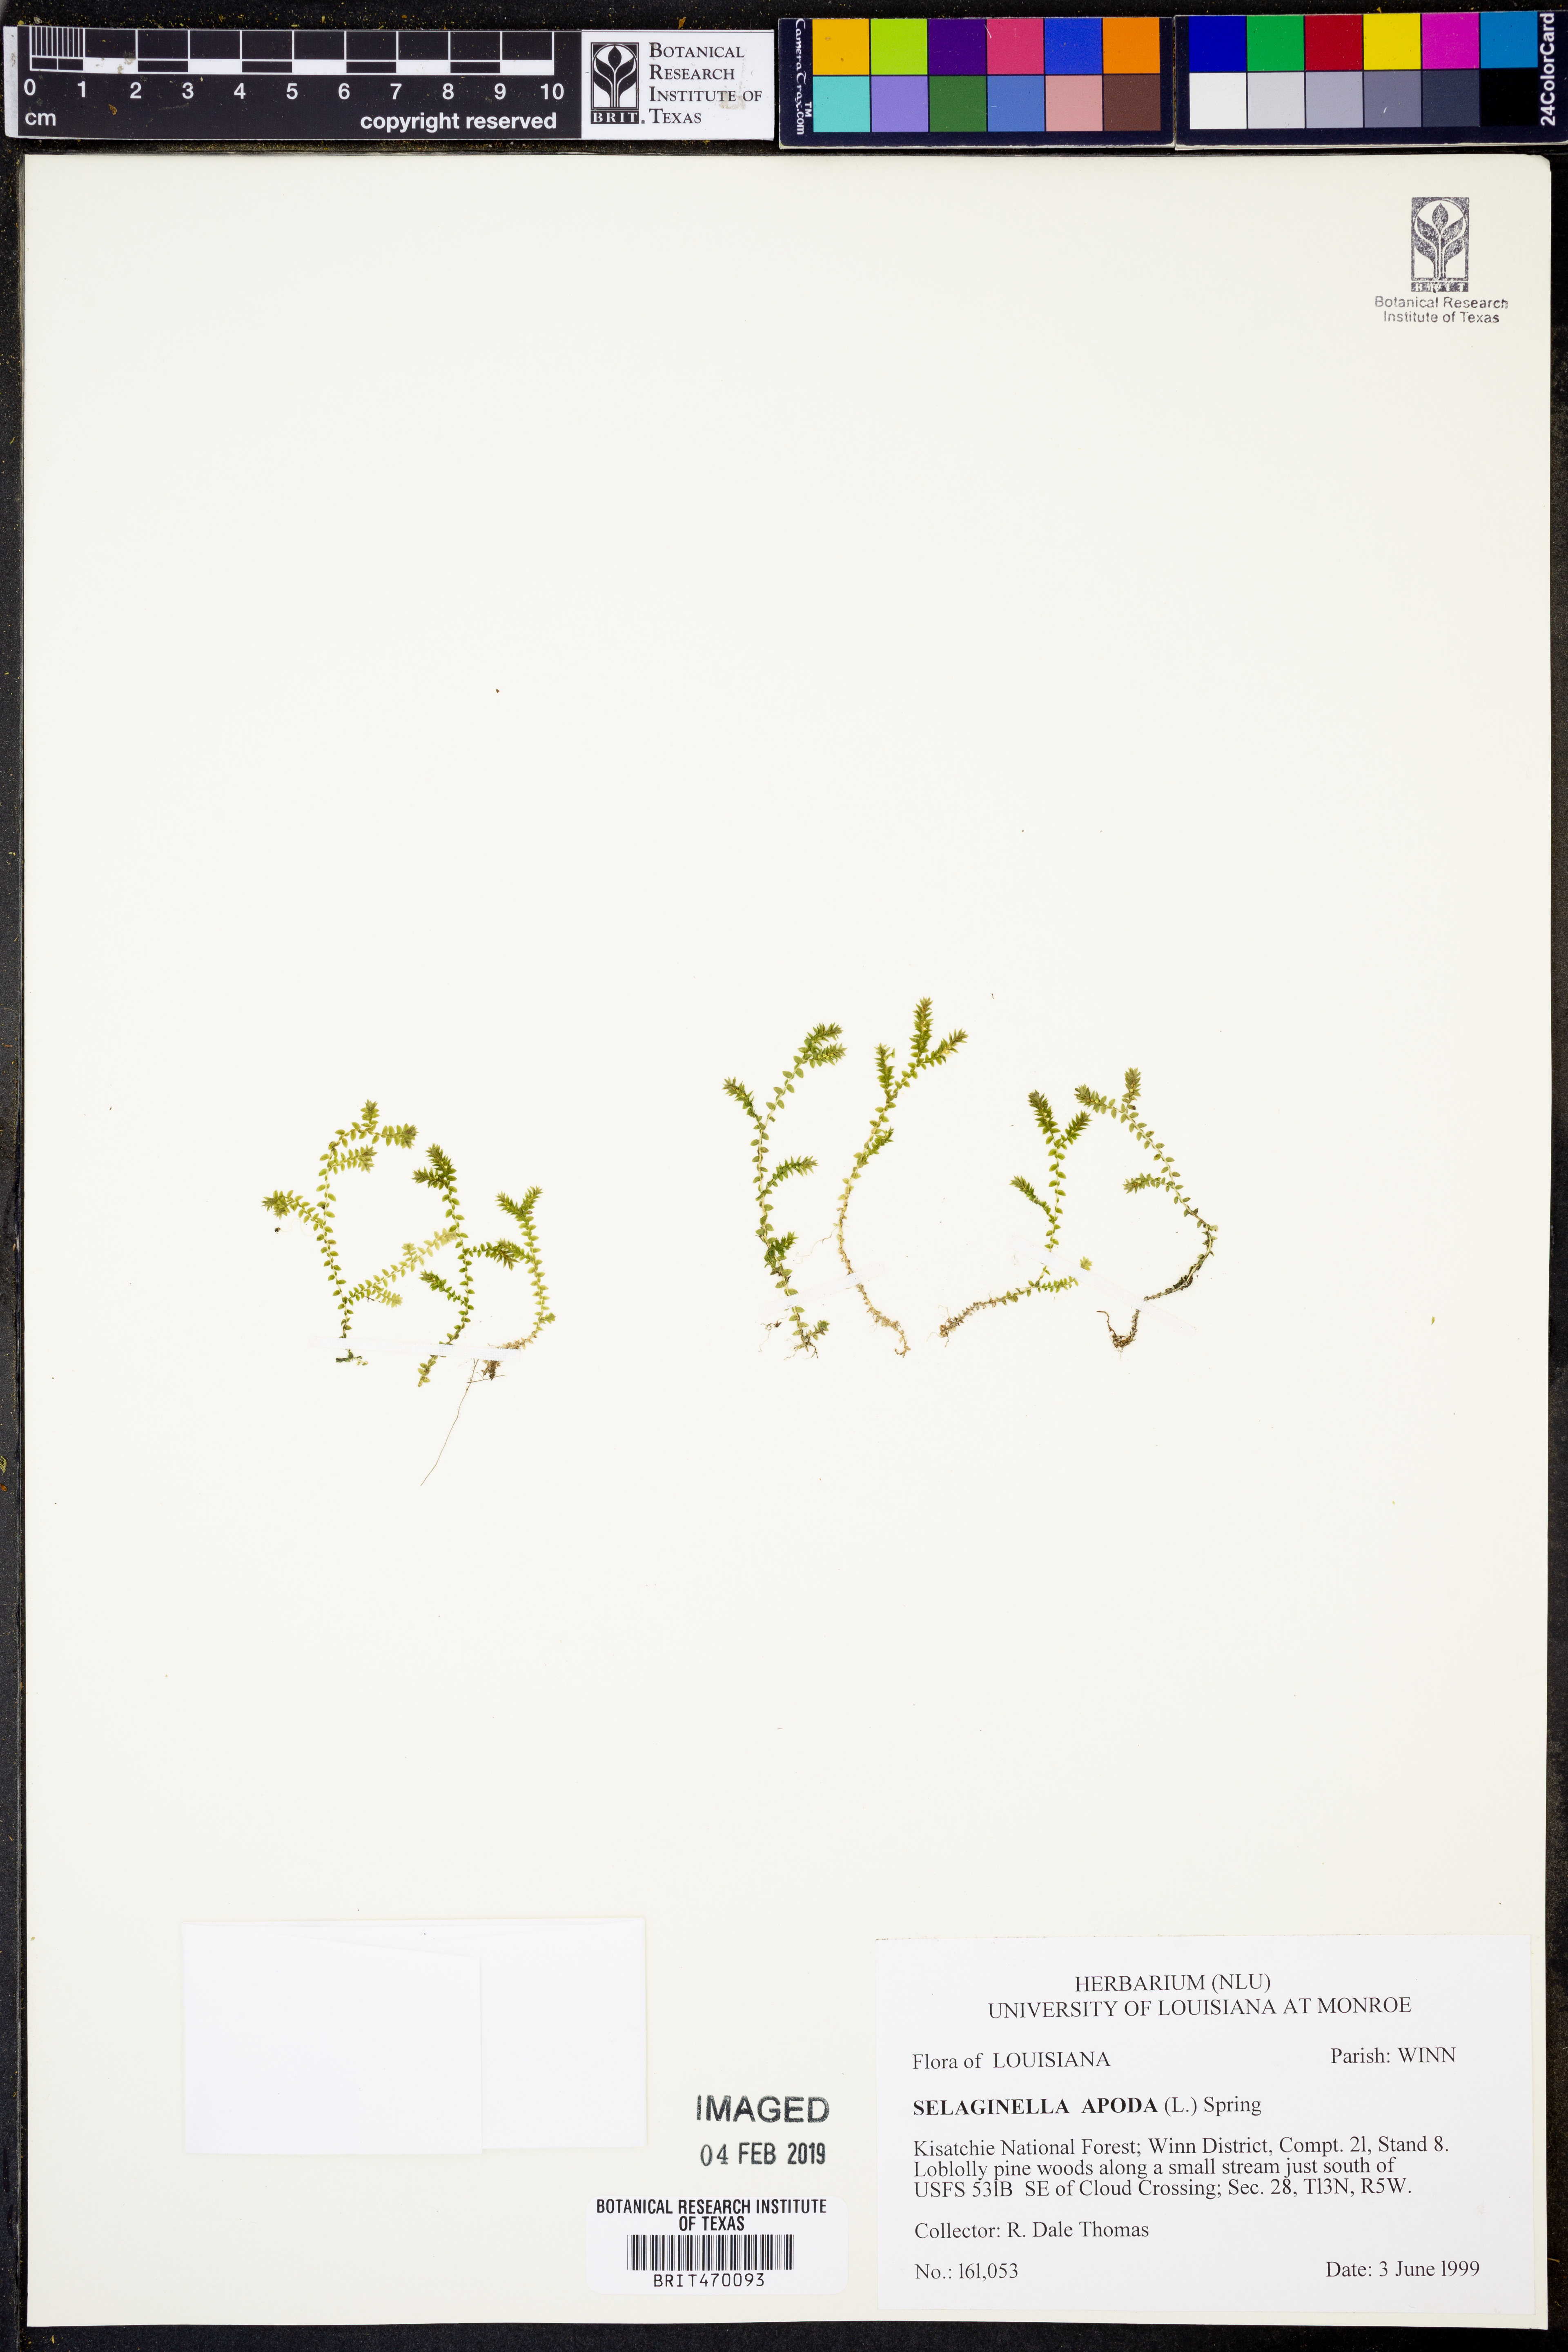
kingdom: Plantae
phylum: Tracheophyta
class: Lycopodiopsida
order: Selaginellales
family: Selaginellaceae
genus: Selaginella
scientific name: Selaginella apoda
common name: Creeping spikemoss
